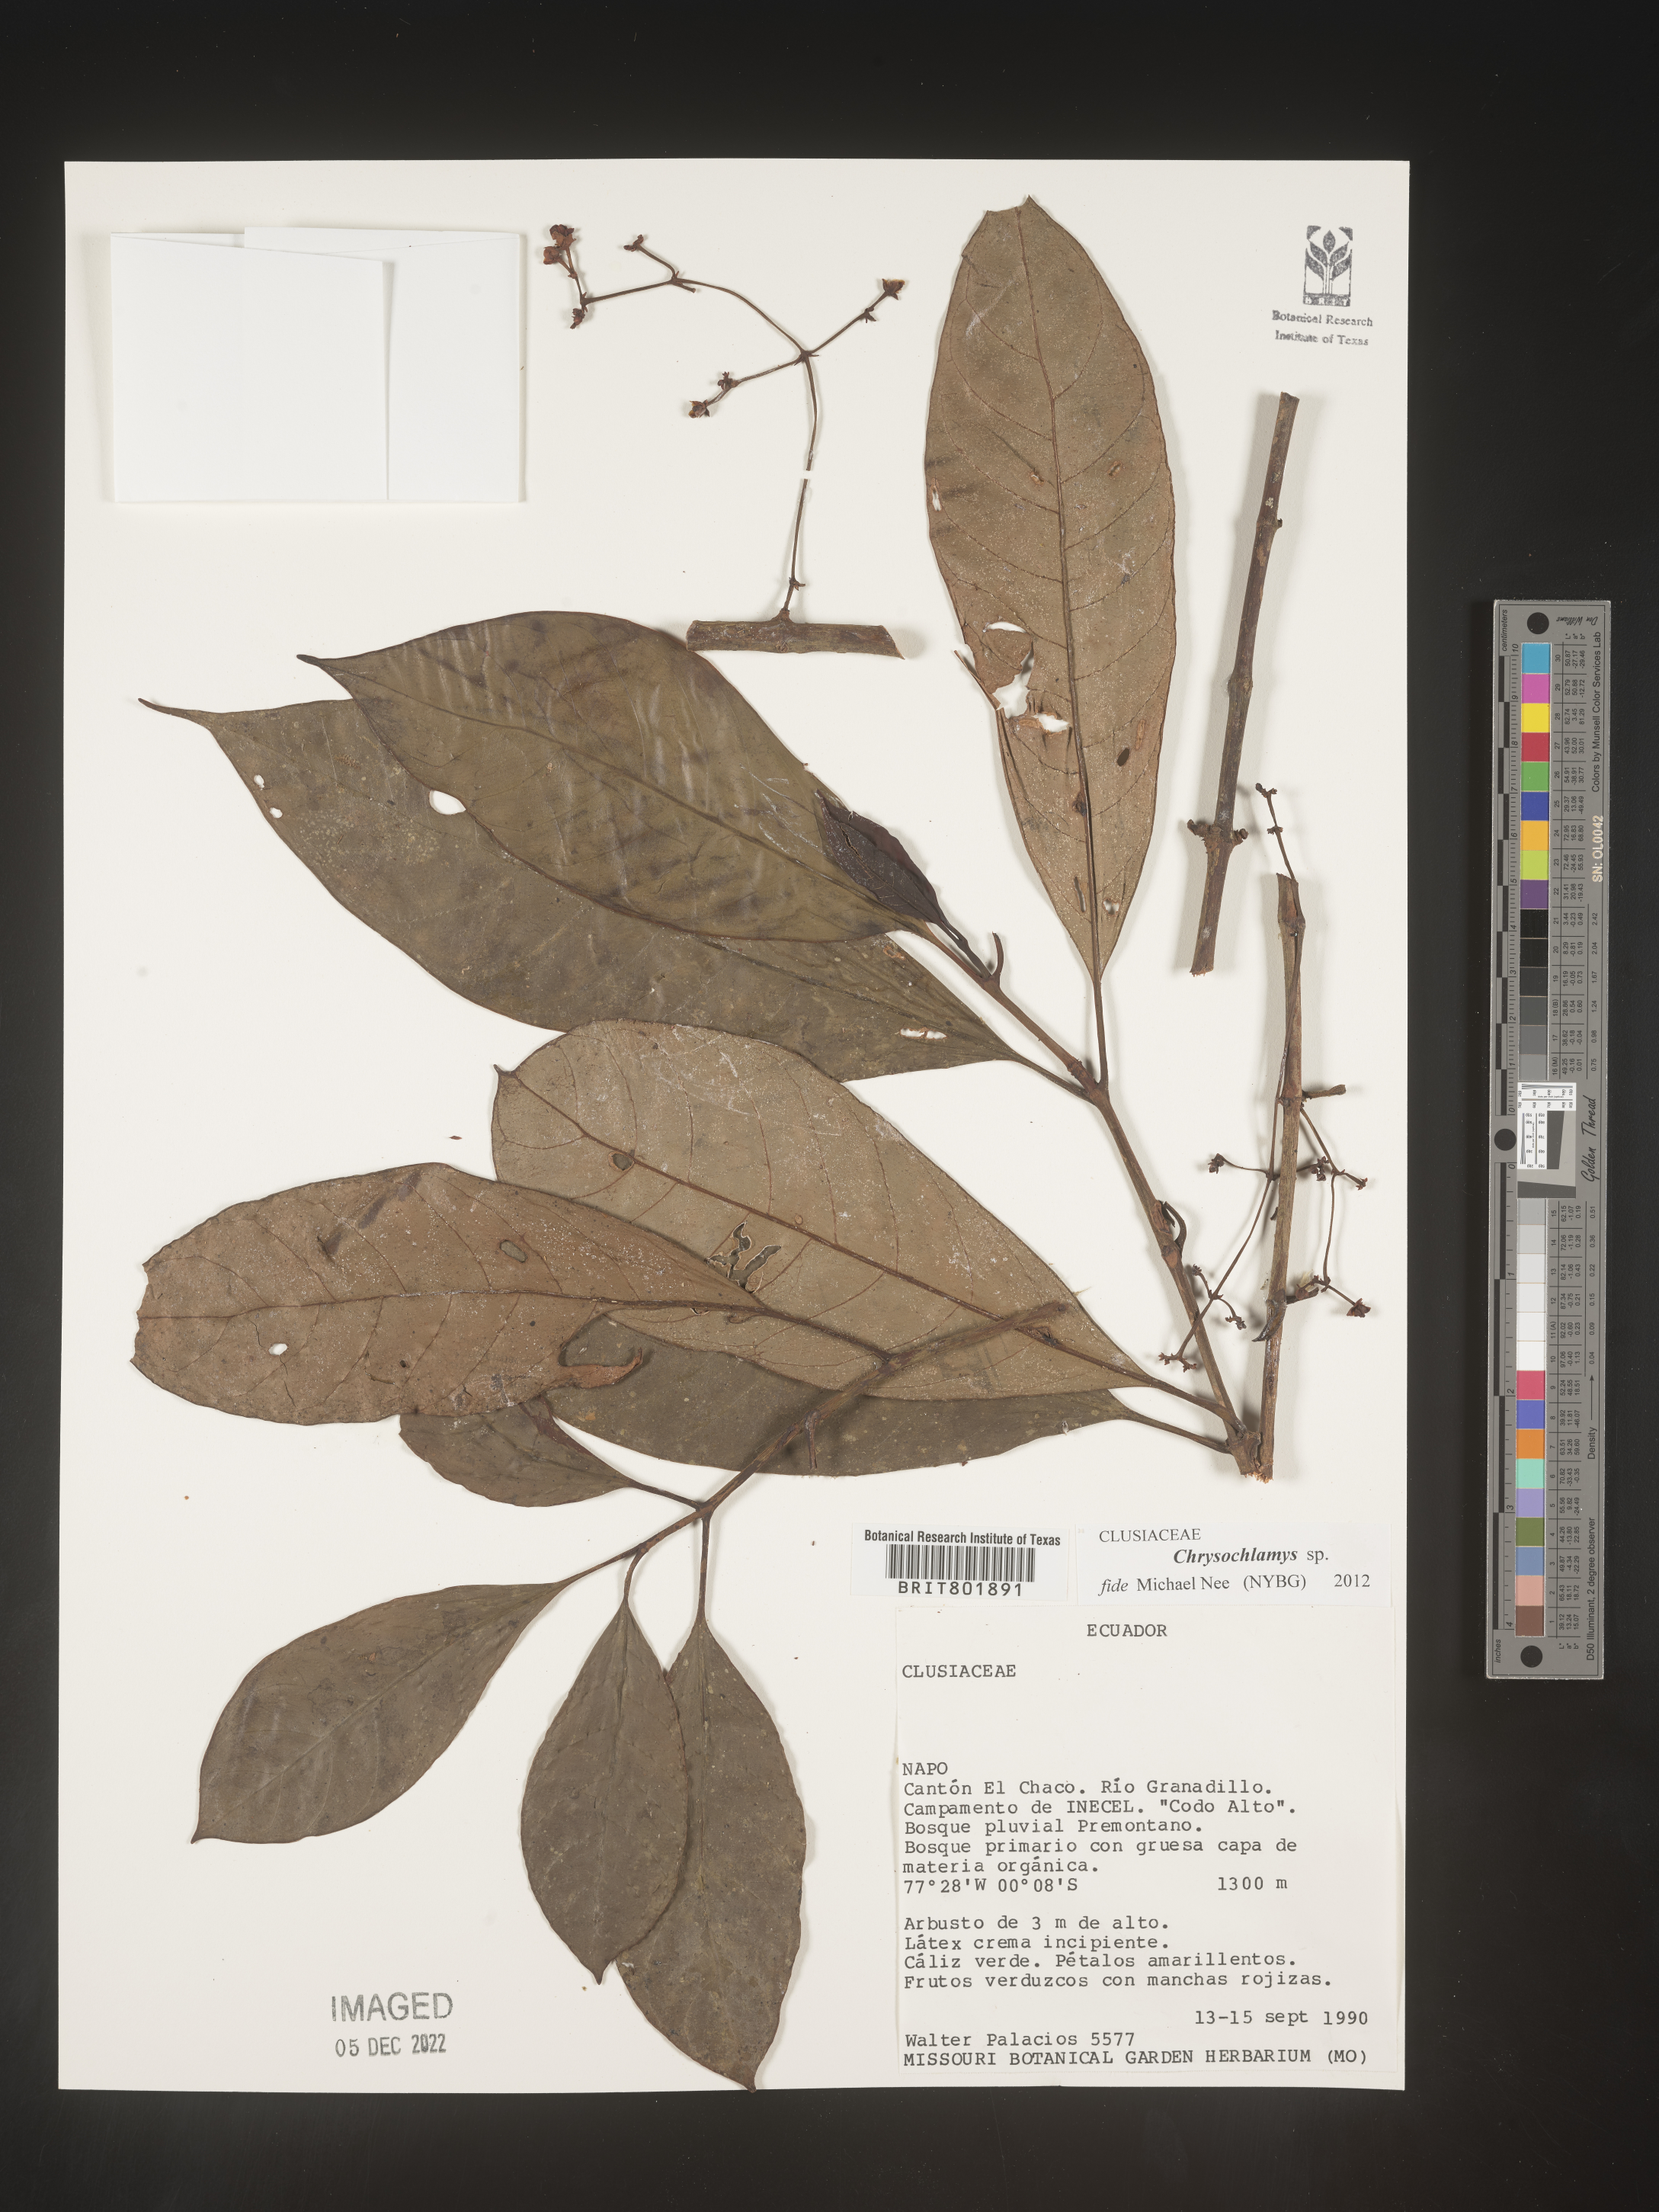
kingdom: Plantae
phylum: Tracheophyta
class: Magnoliopsida
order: Malpighiales
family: Clusiaceae
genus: Chrysochlamys
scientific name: Chrysochlamys
